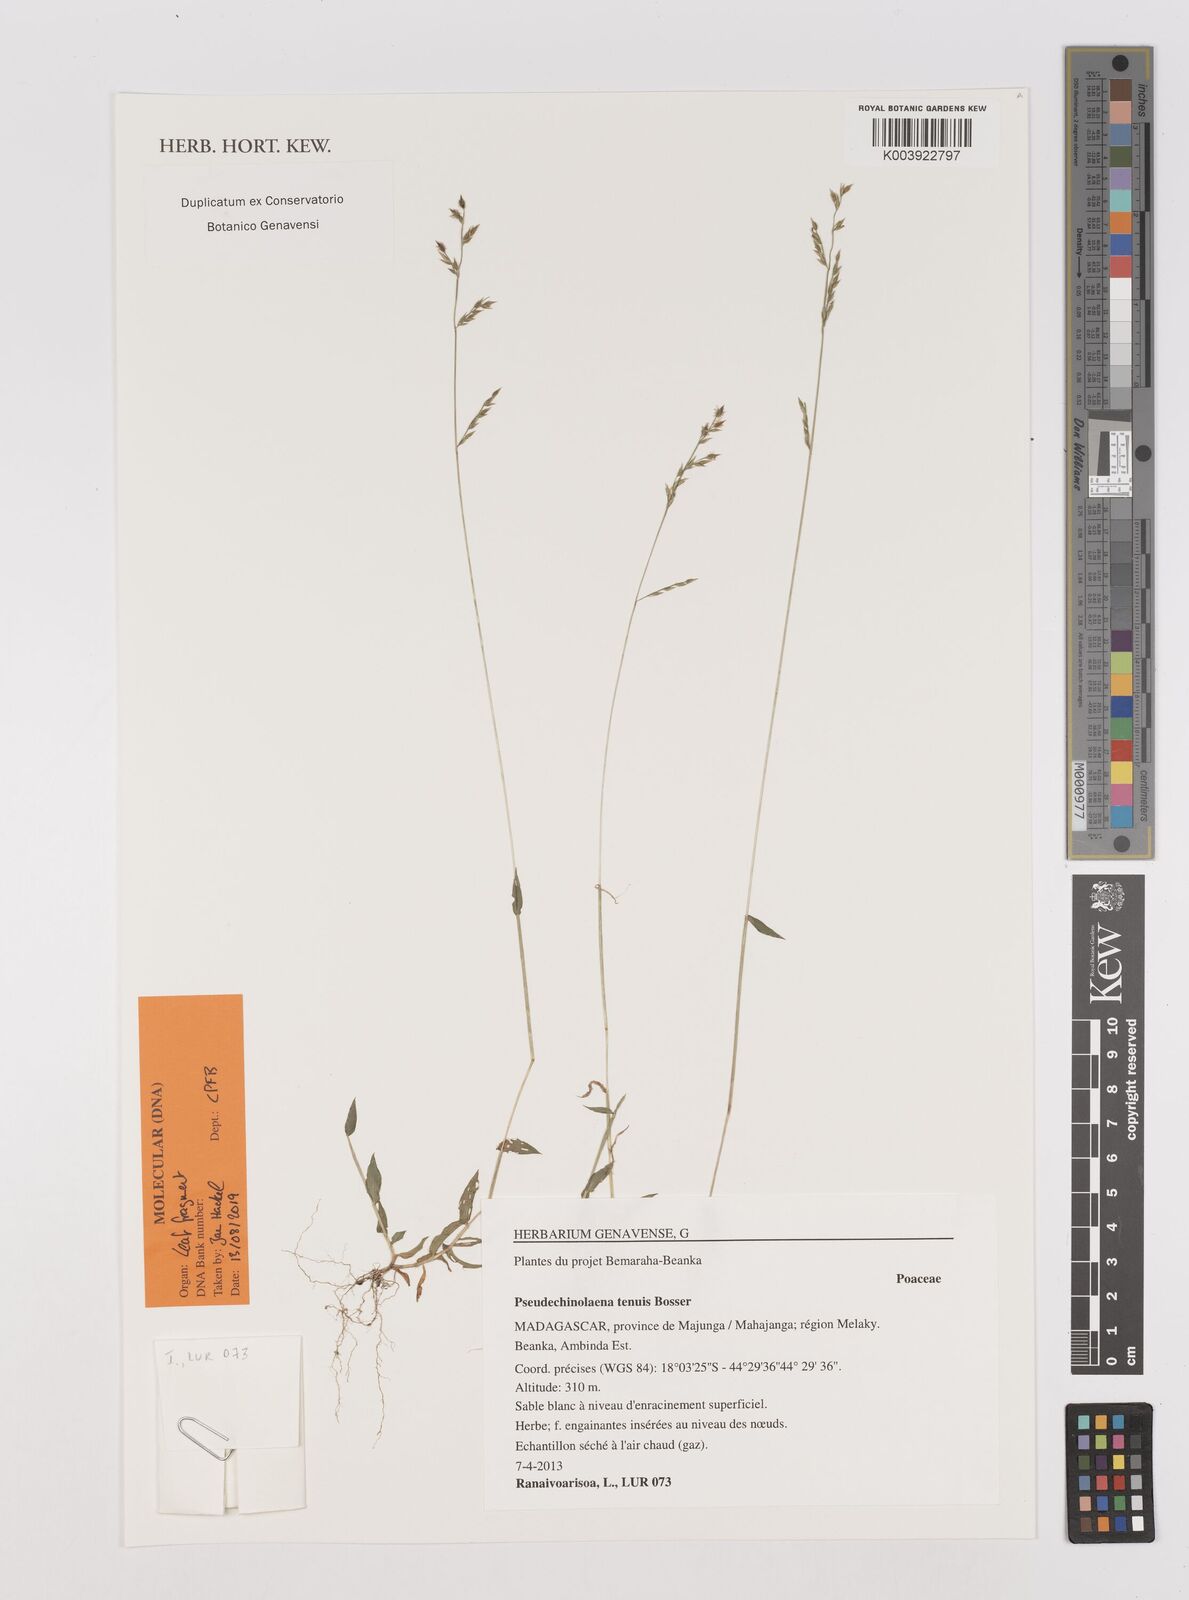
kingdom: Plantae
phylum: Tracheophyta
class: Liliopsida
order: Poales
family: Poaceae
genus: Pseudechinolaena
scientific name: Pseudechinolaena tenuis
